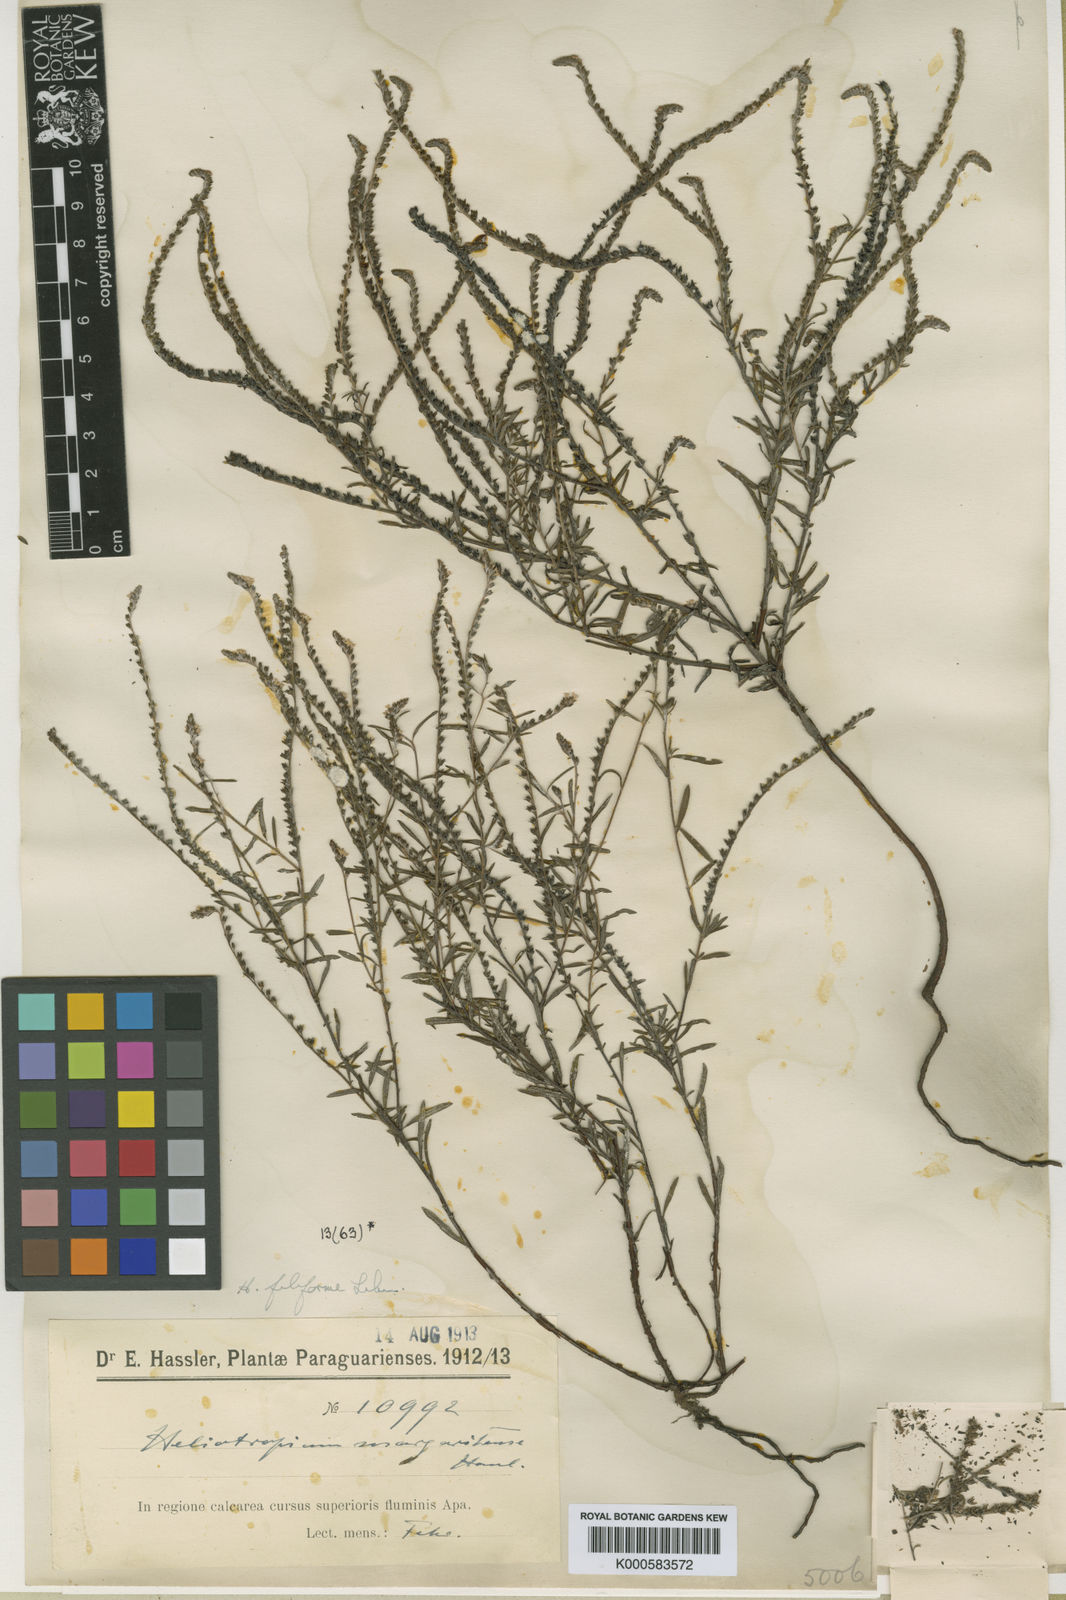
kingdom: Plantae
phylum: Tracheophyta
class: Magnoliopsida
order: Boraginales
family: Heliotropiaceae
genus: Heliotropium
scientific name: Heliotropium
